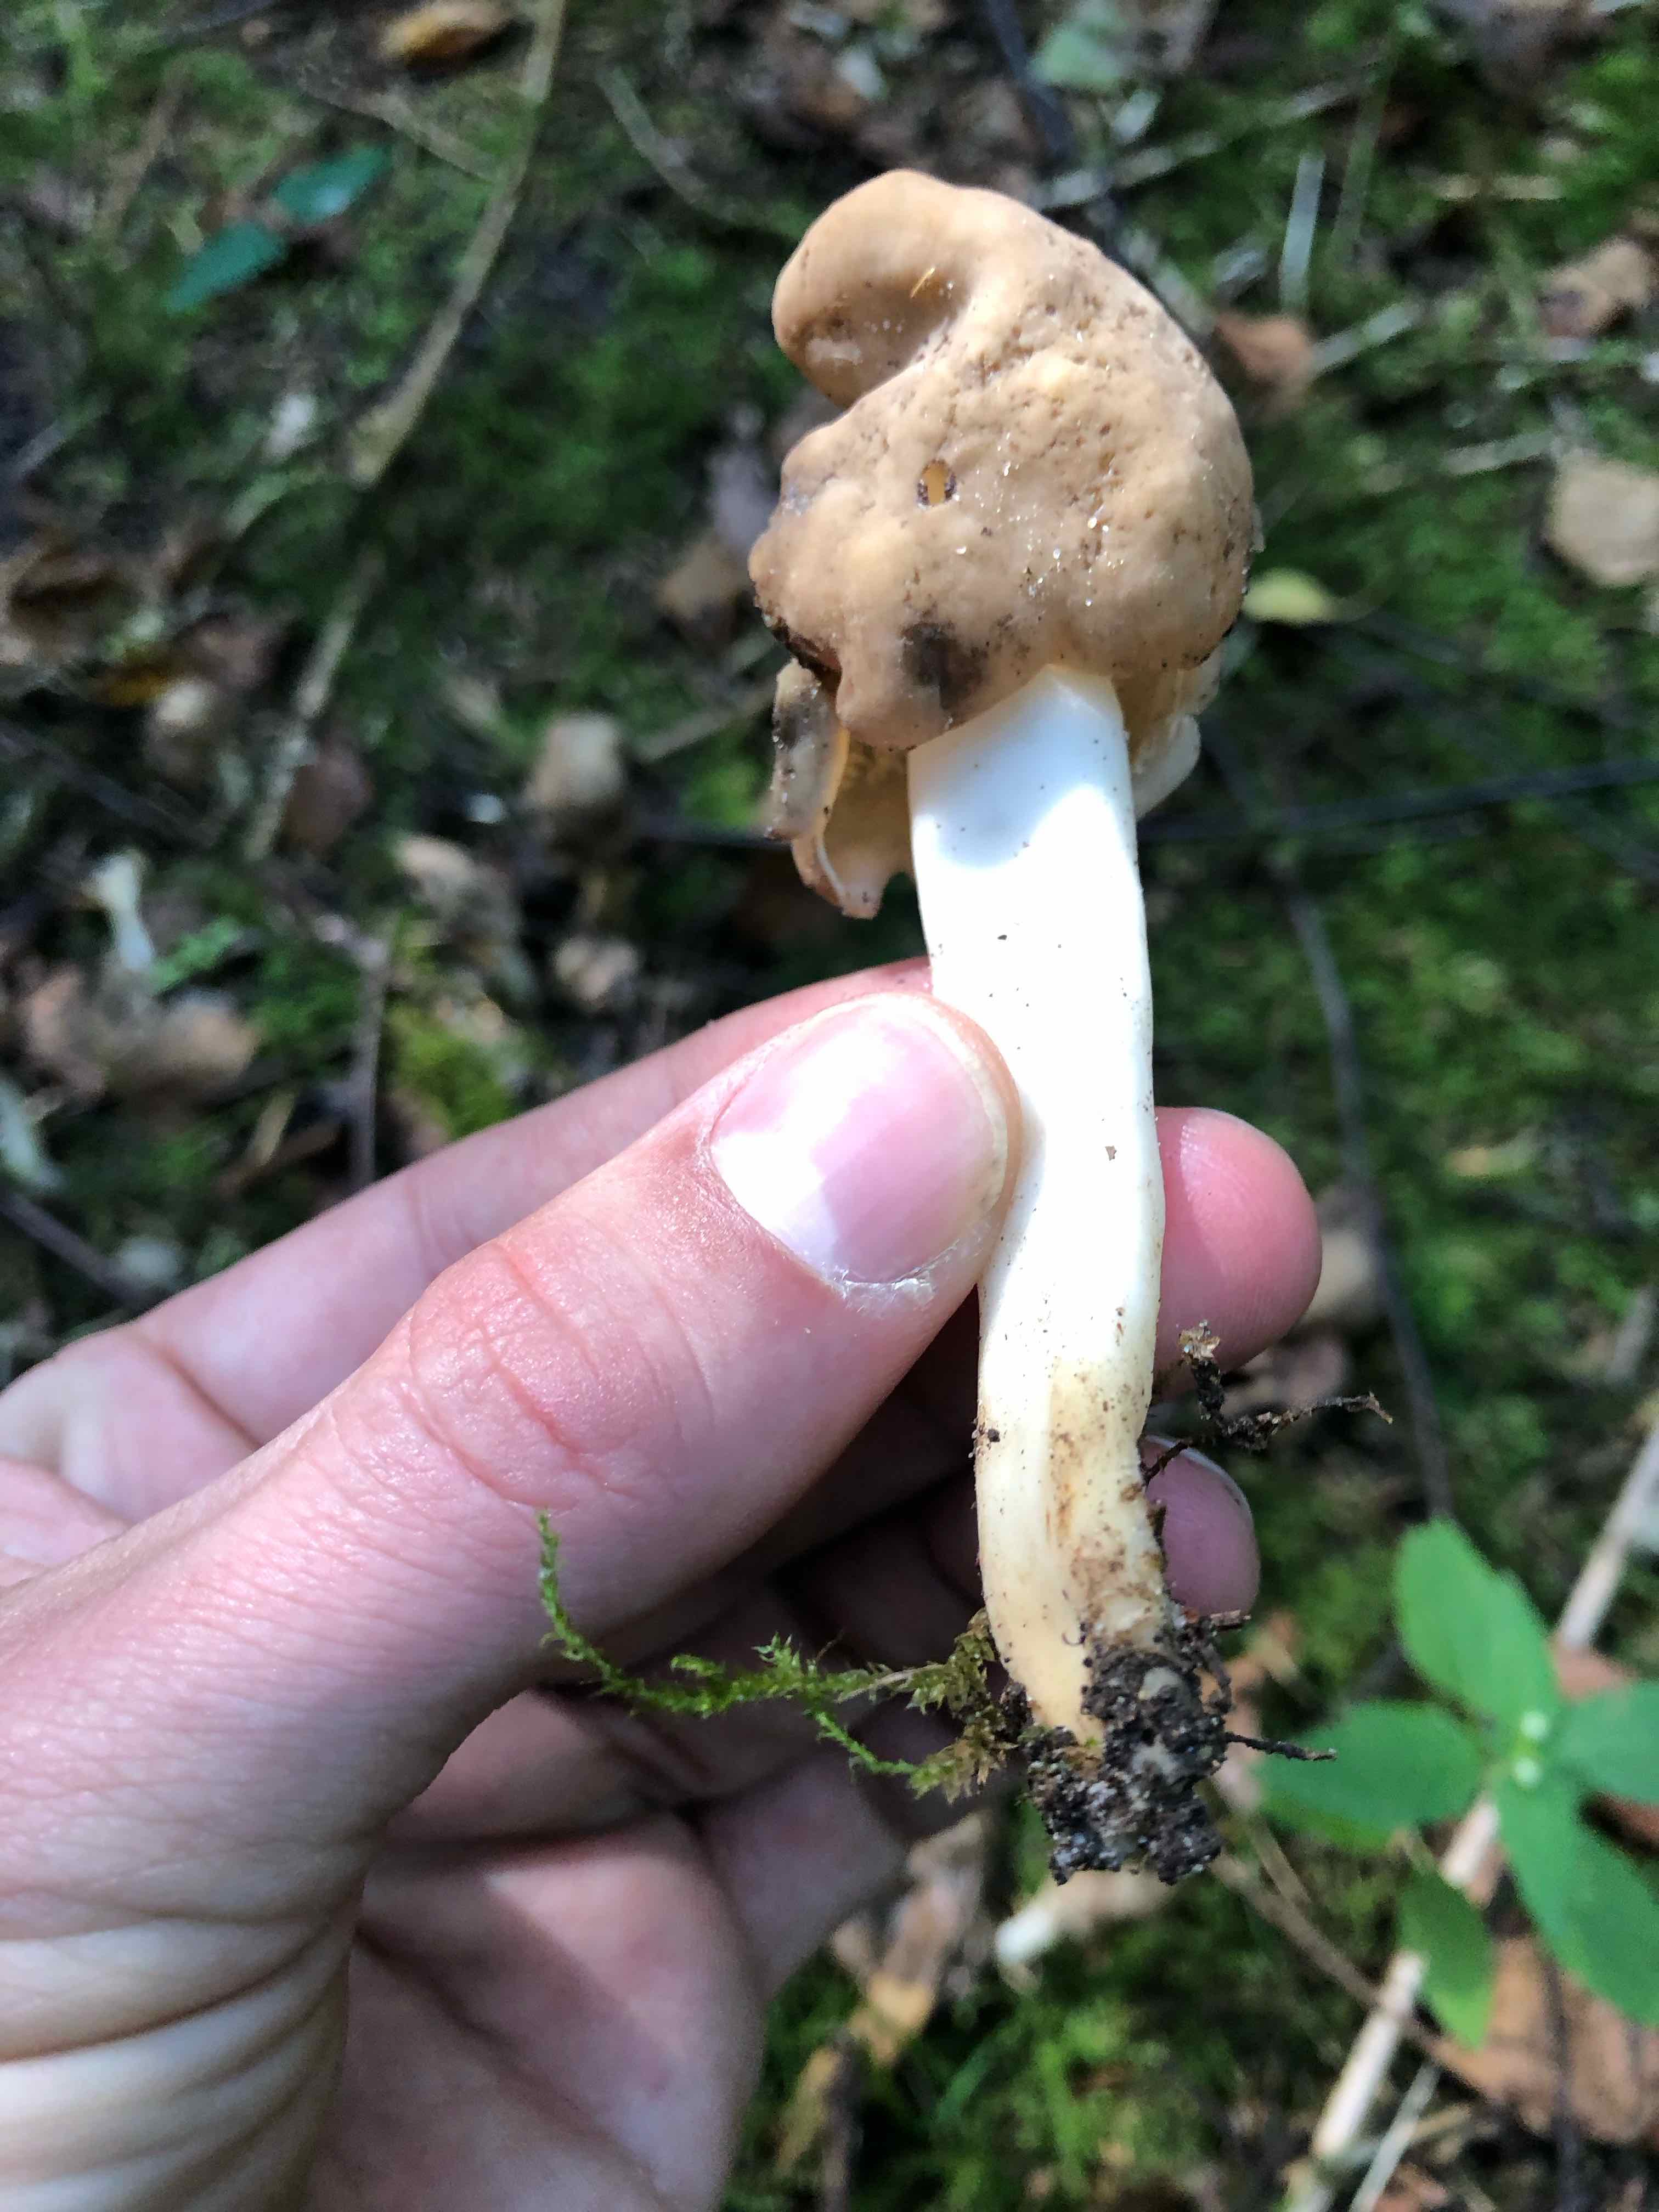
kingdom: Fungi
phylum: Ascomycota
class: Pezizomycetes
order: Pezizales
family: Helvellaceae
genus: Helvella
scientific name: Helvella elastica
